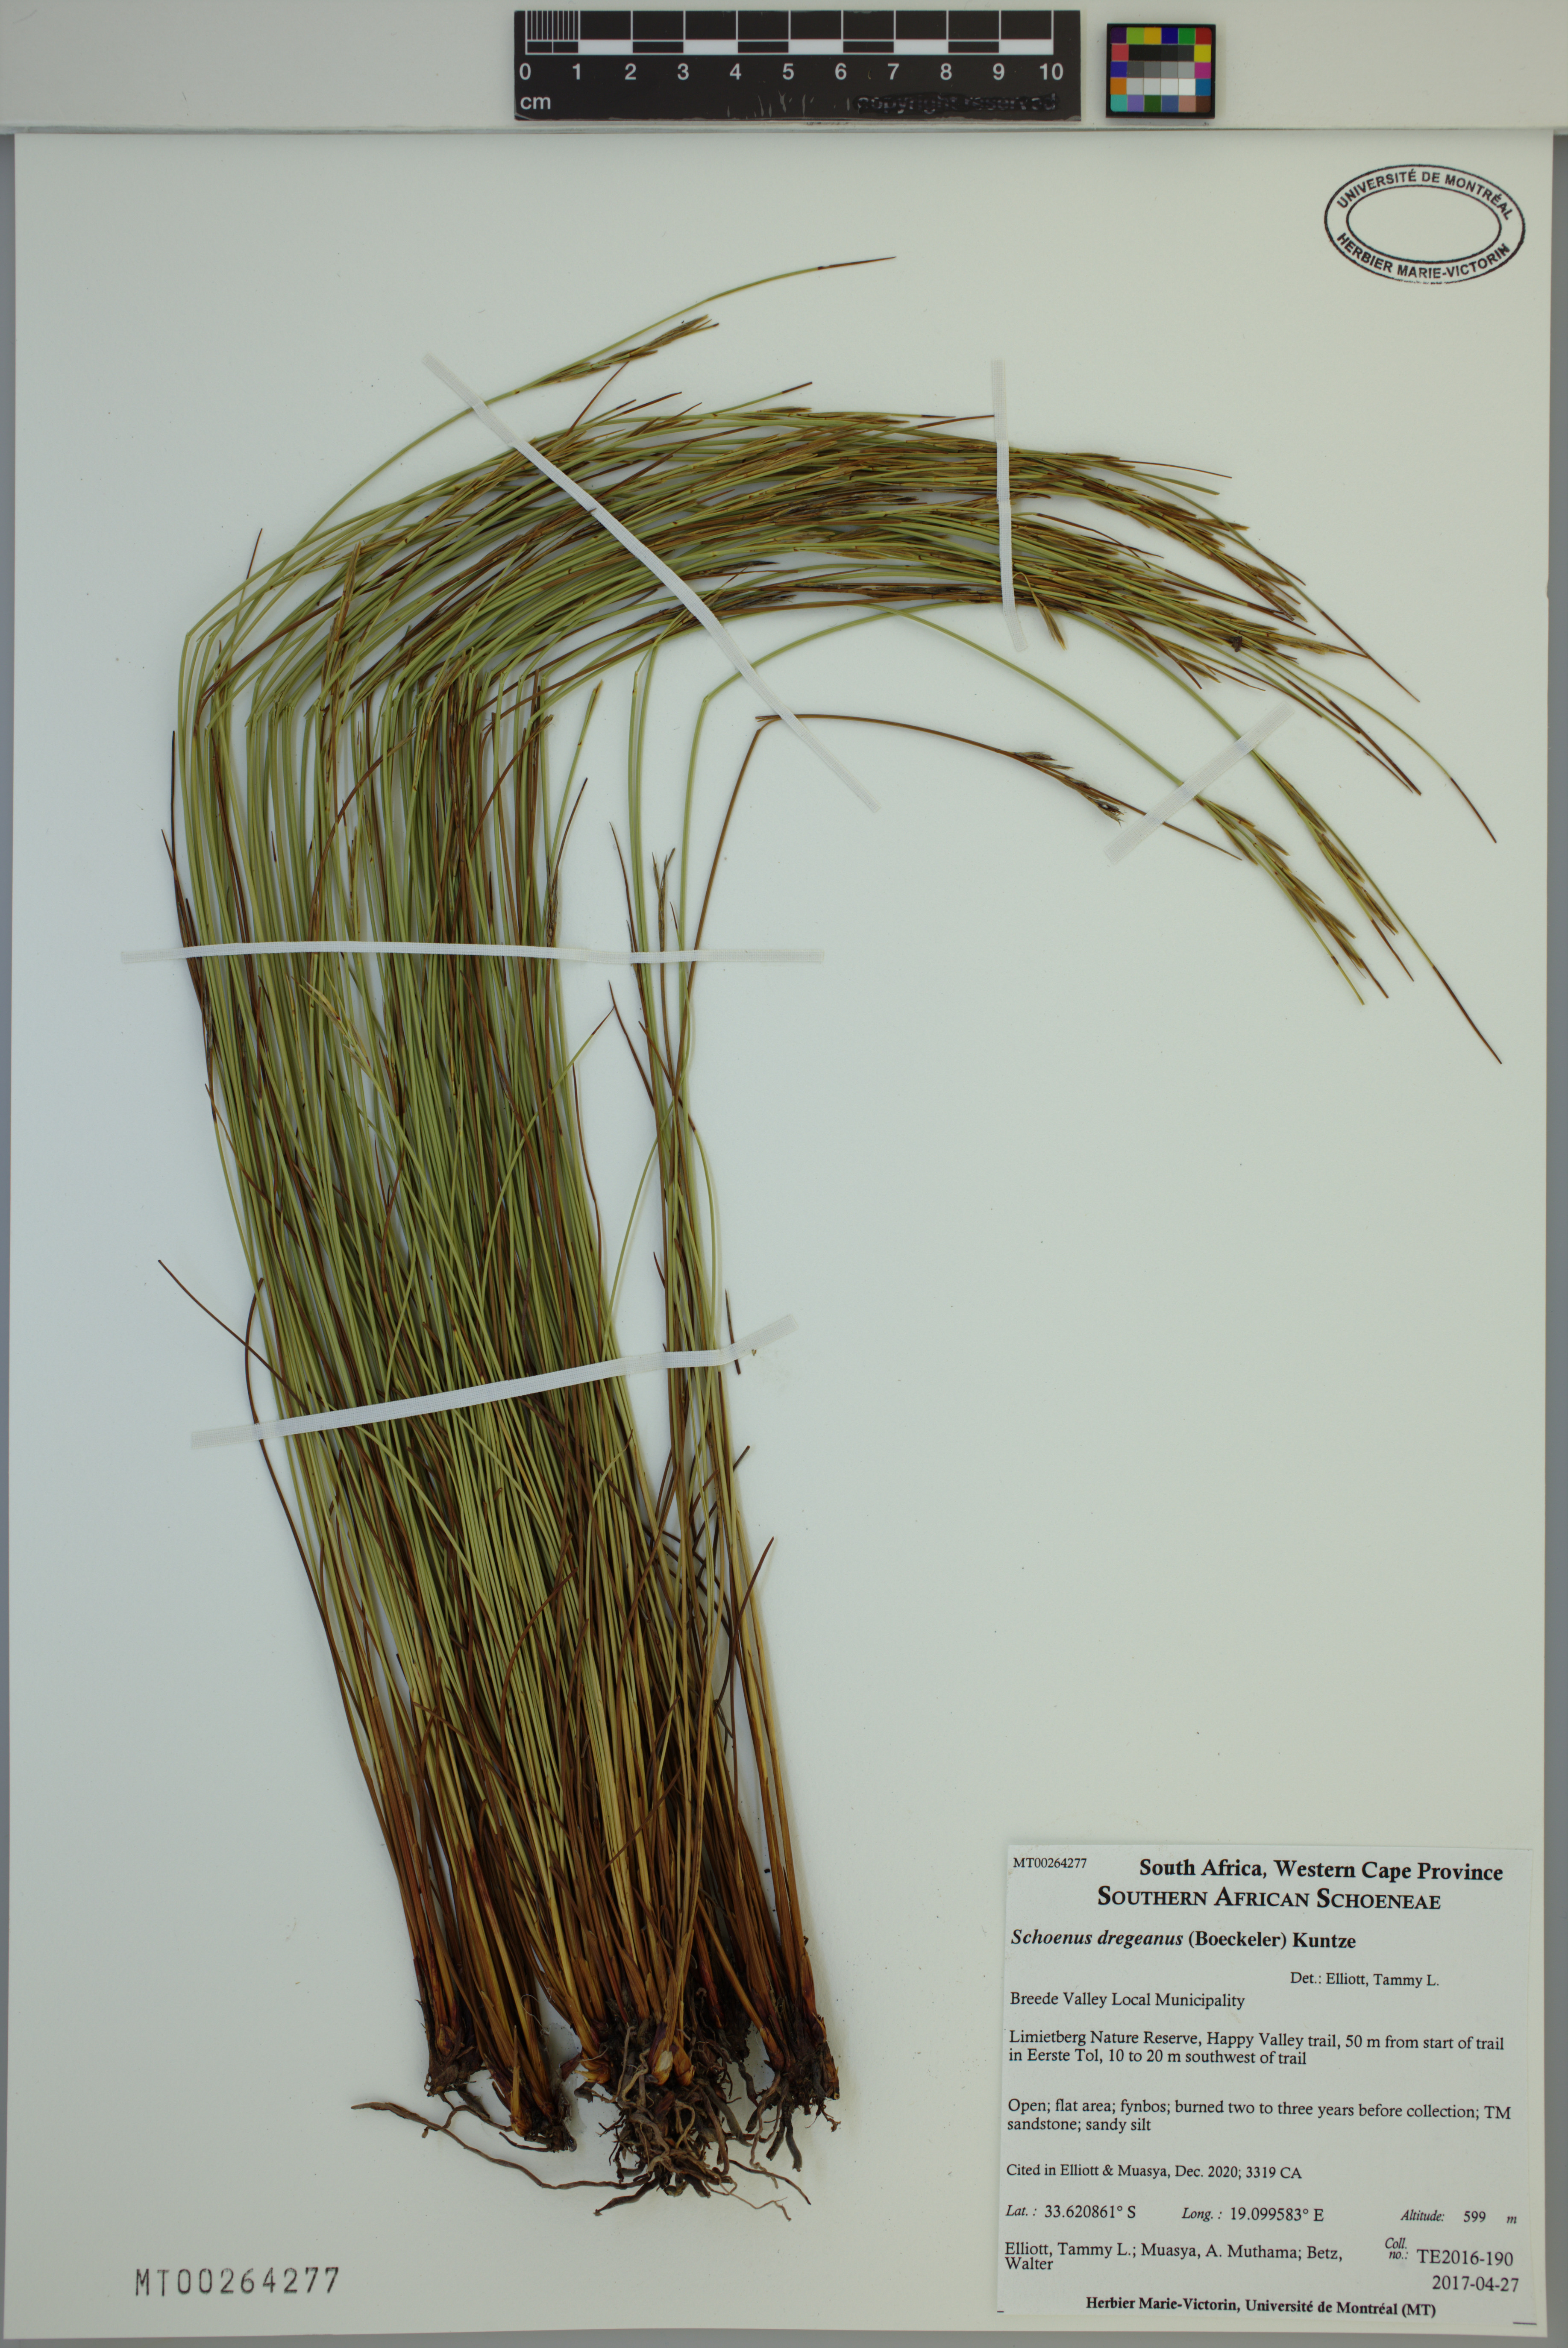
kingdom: Plantae
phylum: Tracheophyta
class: Liliopsida
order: Poales
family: Cyperaceae
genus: Schoenus
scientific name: Schoenus dregeanus
